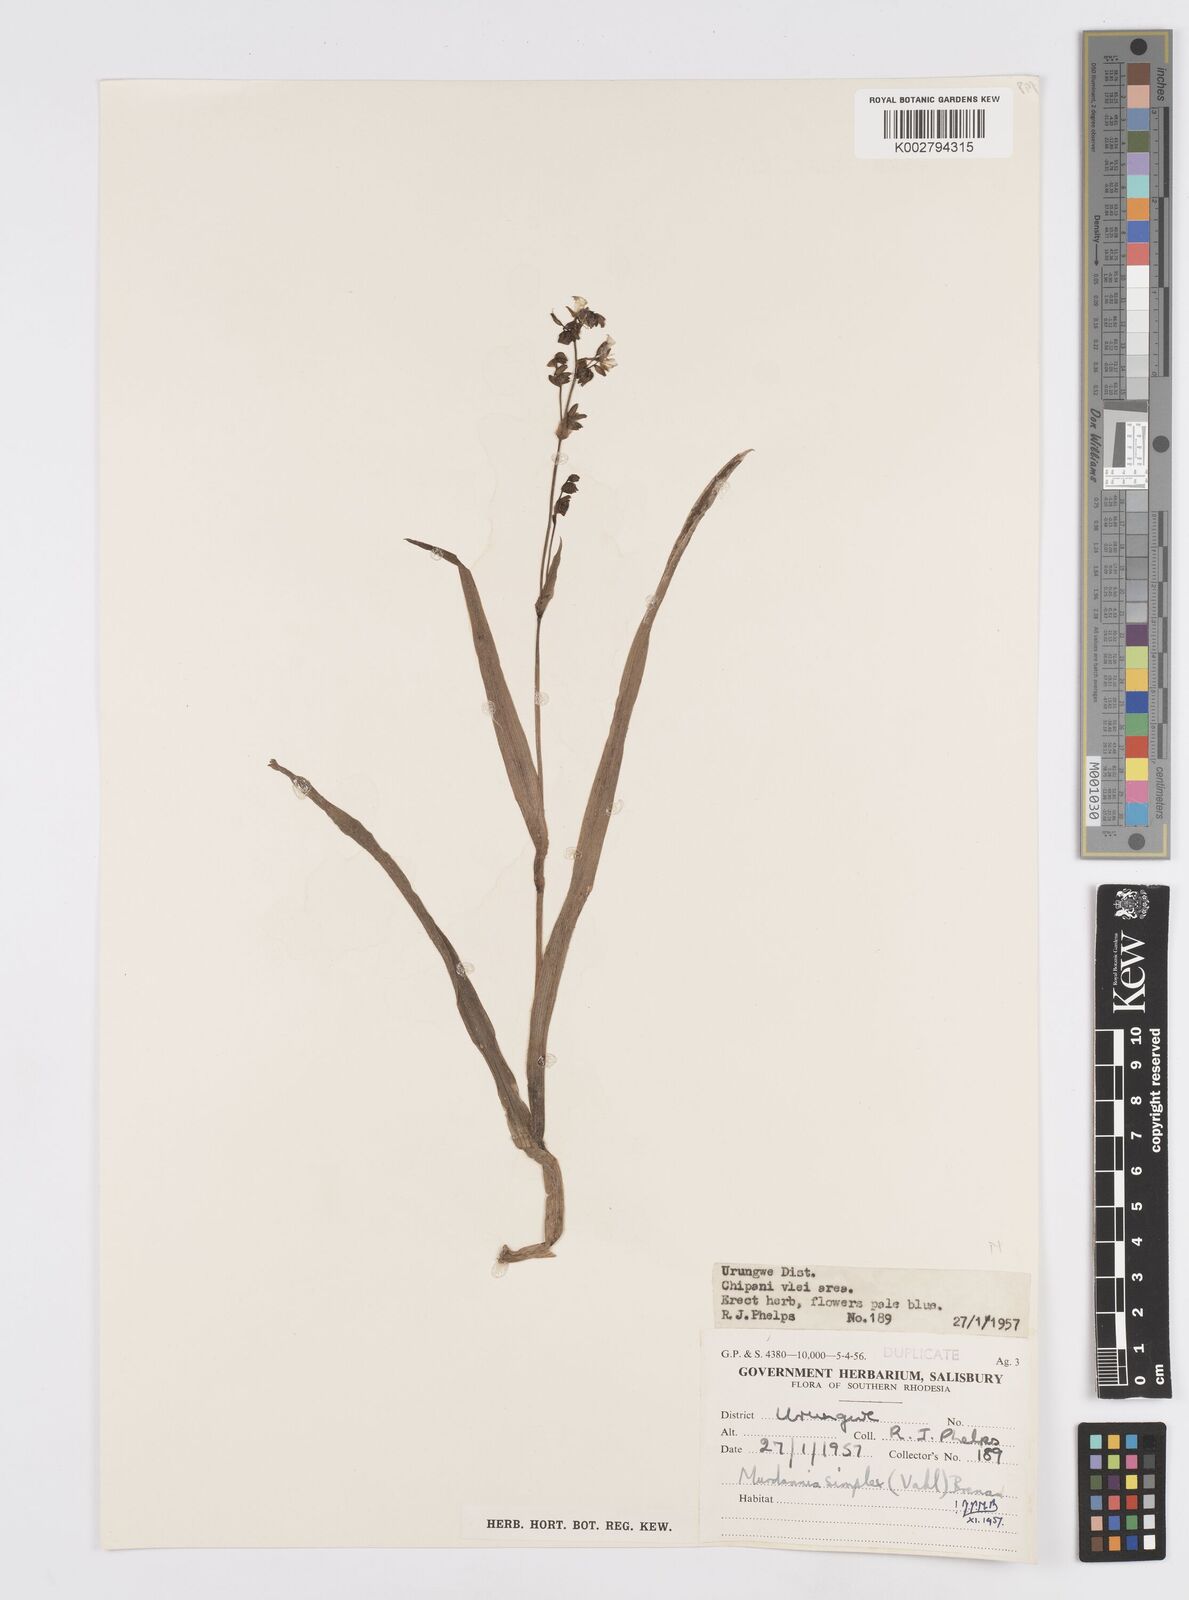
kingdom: Plantae
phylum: Tracheophyta
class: Liliopsida
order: Commelinales
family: Commelinaceae
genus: Murdannia
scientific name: Murdannia simplex
